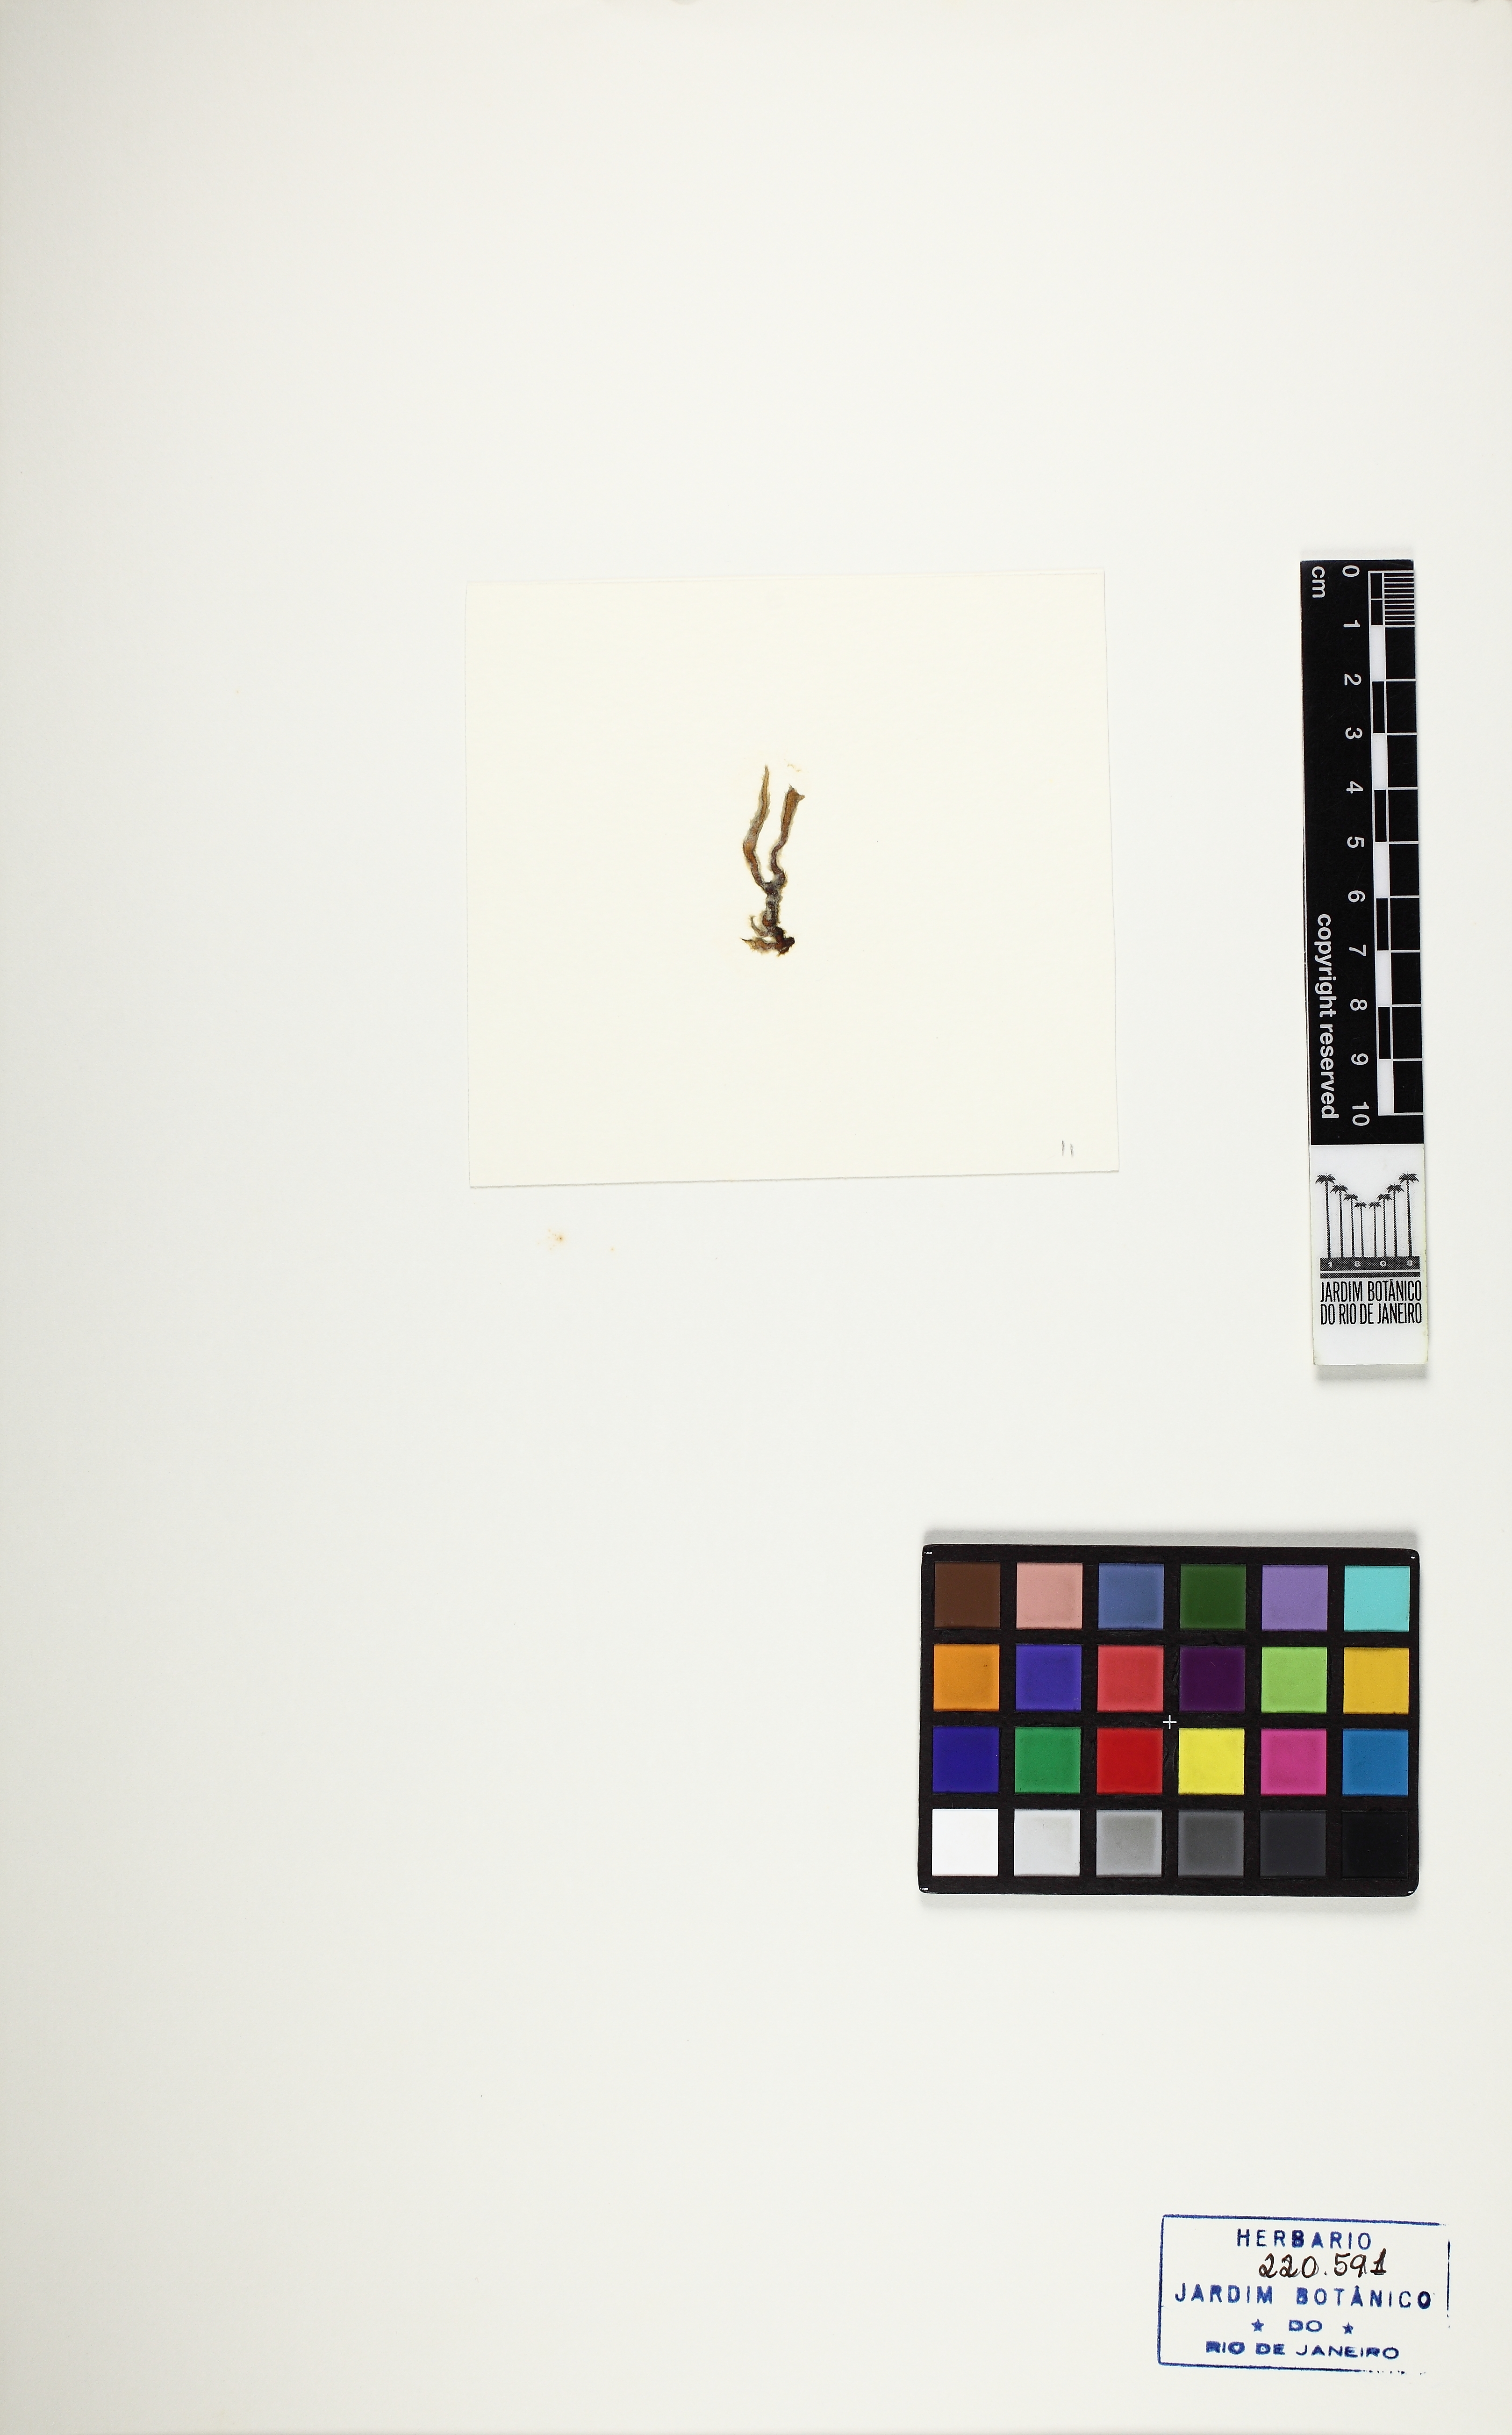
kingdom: Chromista
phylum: Ochrophyta
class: Phaeophyceae
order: Ectocarpales
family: Chordariaceae
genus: Levringia
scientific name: Levringia brasiliensis
